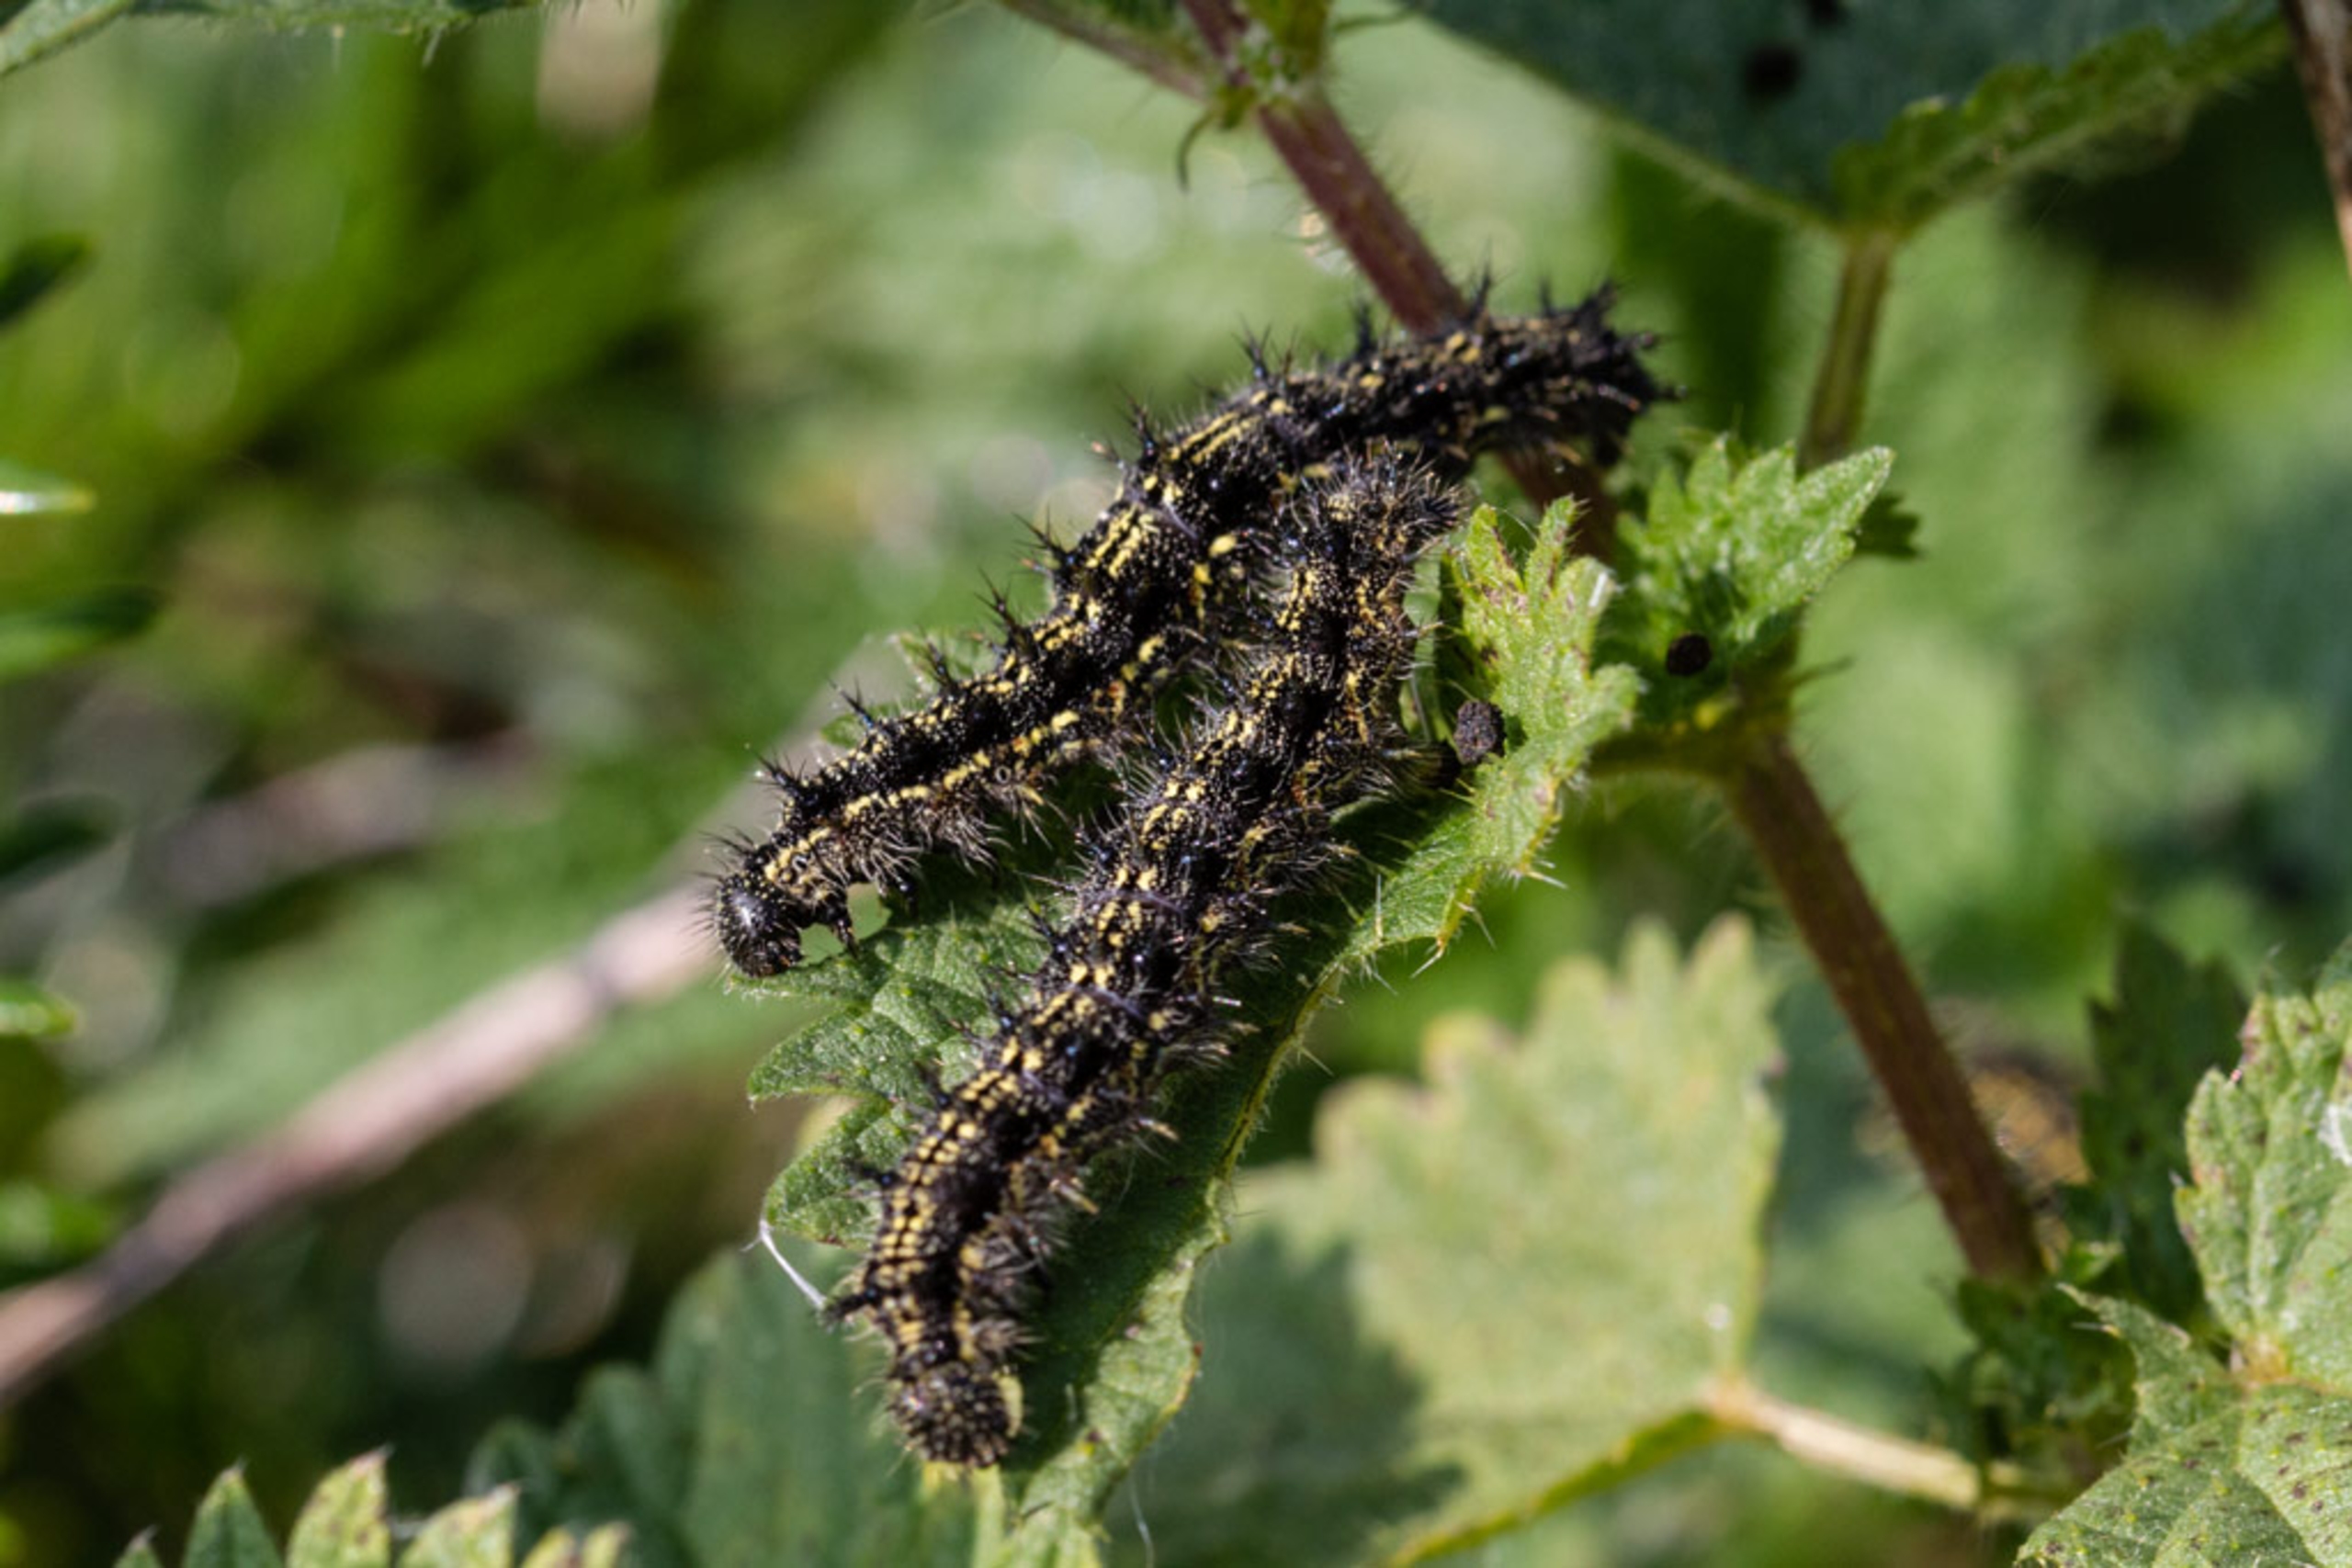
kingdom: Animalia
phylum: Arthropoda
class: Insecta
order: Lepidoptera
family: Nymphalidae
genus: Aglais
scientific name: Aglais urticae
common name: Nældens takvinge
